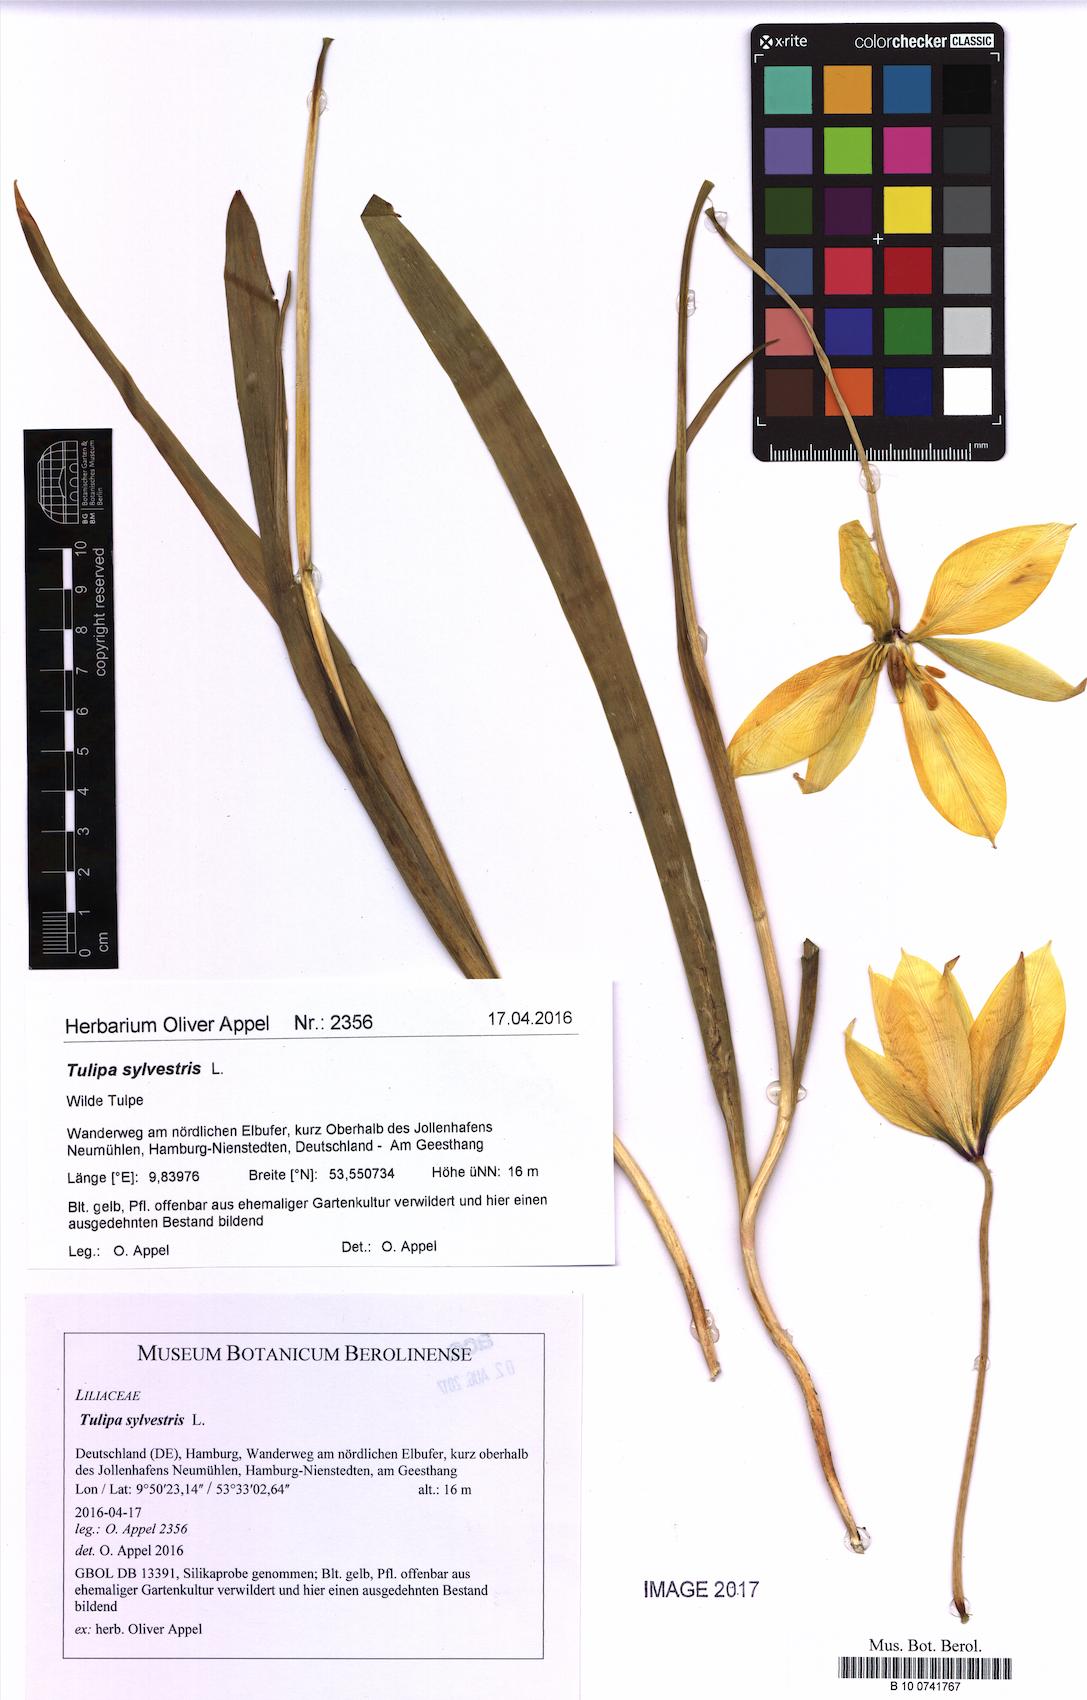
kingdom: Plantae
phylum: Tracheophyta
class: Liliopsida
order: Liliales
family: Liliaceae
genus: Tulipa
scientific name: Tulipa sylvestris
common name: Wild tulip
